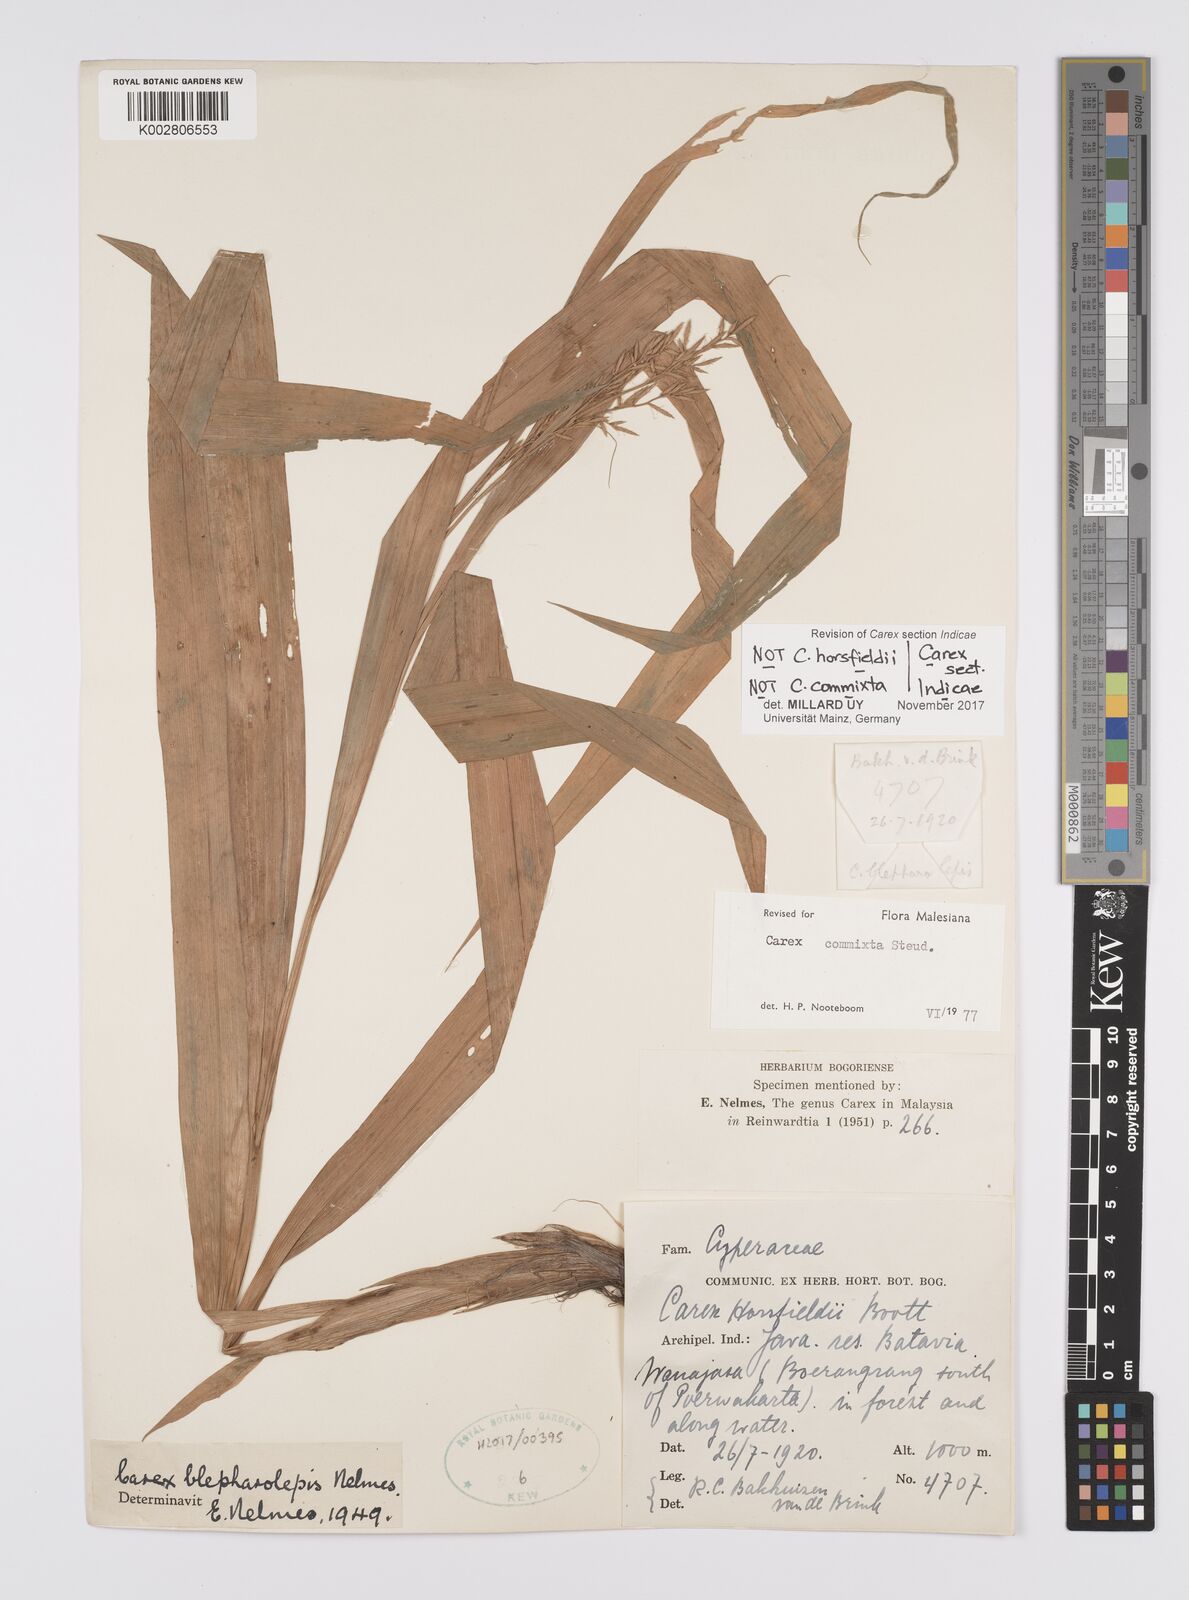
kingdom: Plantae
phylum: Tracheophyta
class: Liliopsida
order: Poales
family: Cyperaceae
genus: Carex
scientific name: Carex
